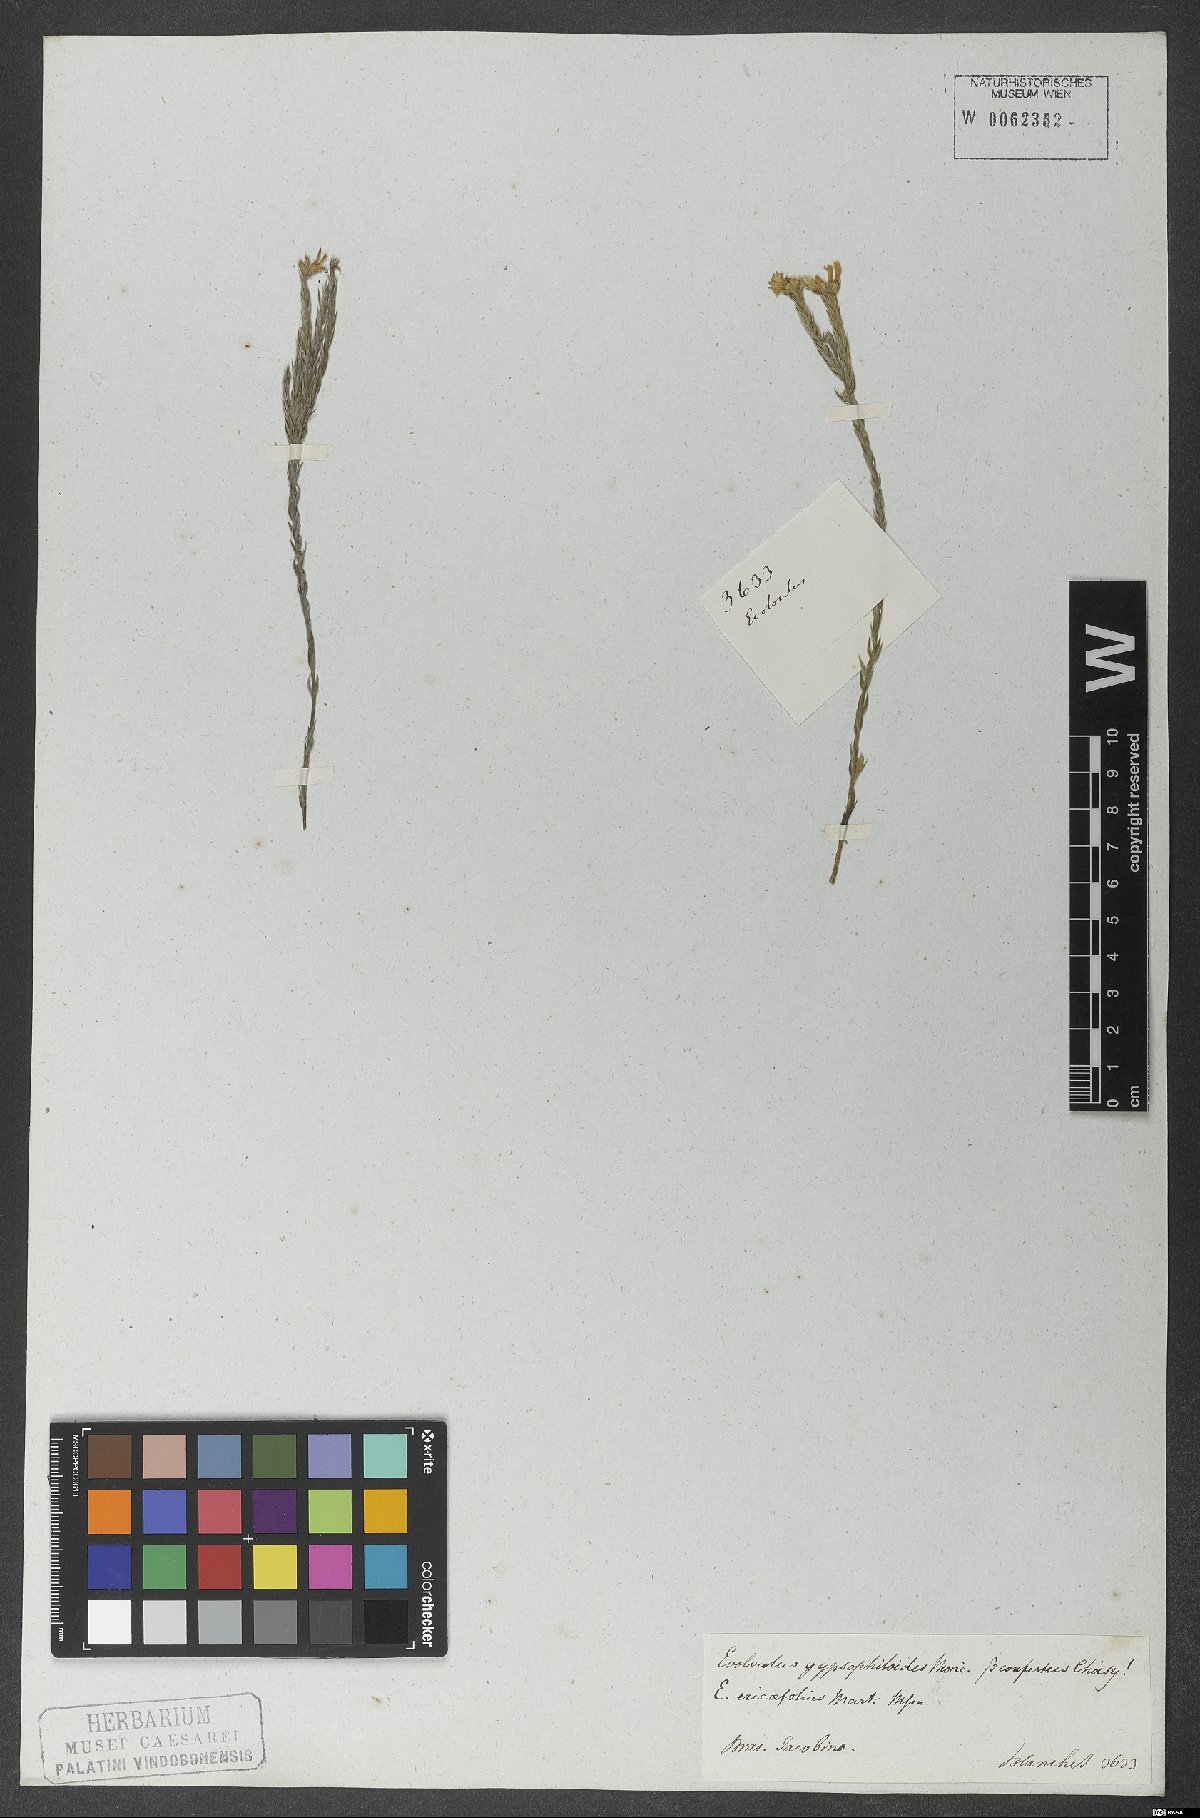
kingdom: Plantae
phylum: Tracheophyta
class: Magnoliopsida
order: Solanales
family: Convolvulaceae
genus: Evolvulus
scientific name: Evolvulus gypsophiloides
